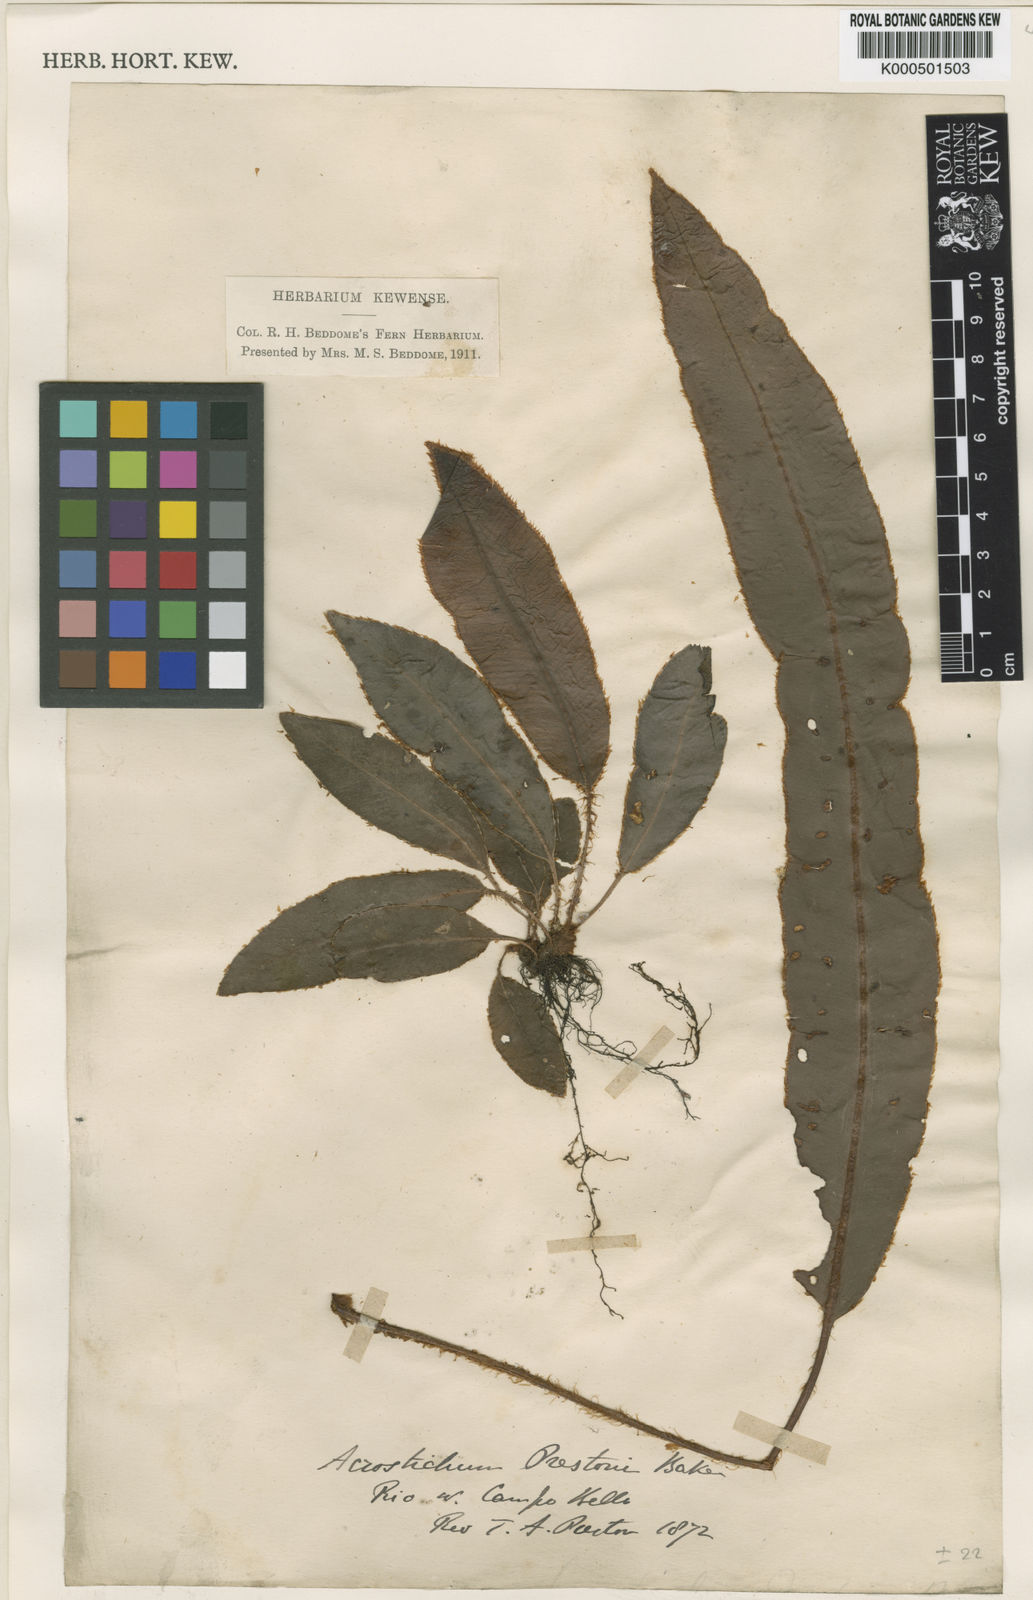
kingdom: Plantae
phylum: Tracheophyta
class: Polypodiopsida
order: Polypodiales
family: Dryopteridaceae
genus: Elaphoglossum
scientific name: Elaphoglossum
